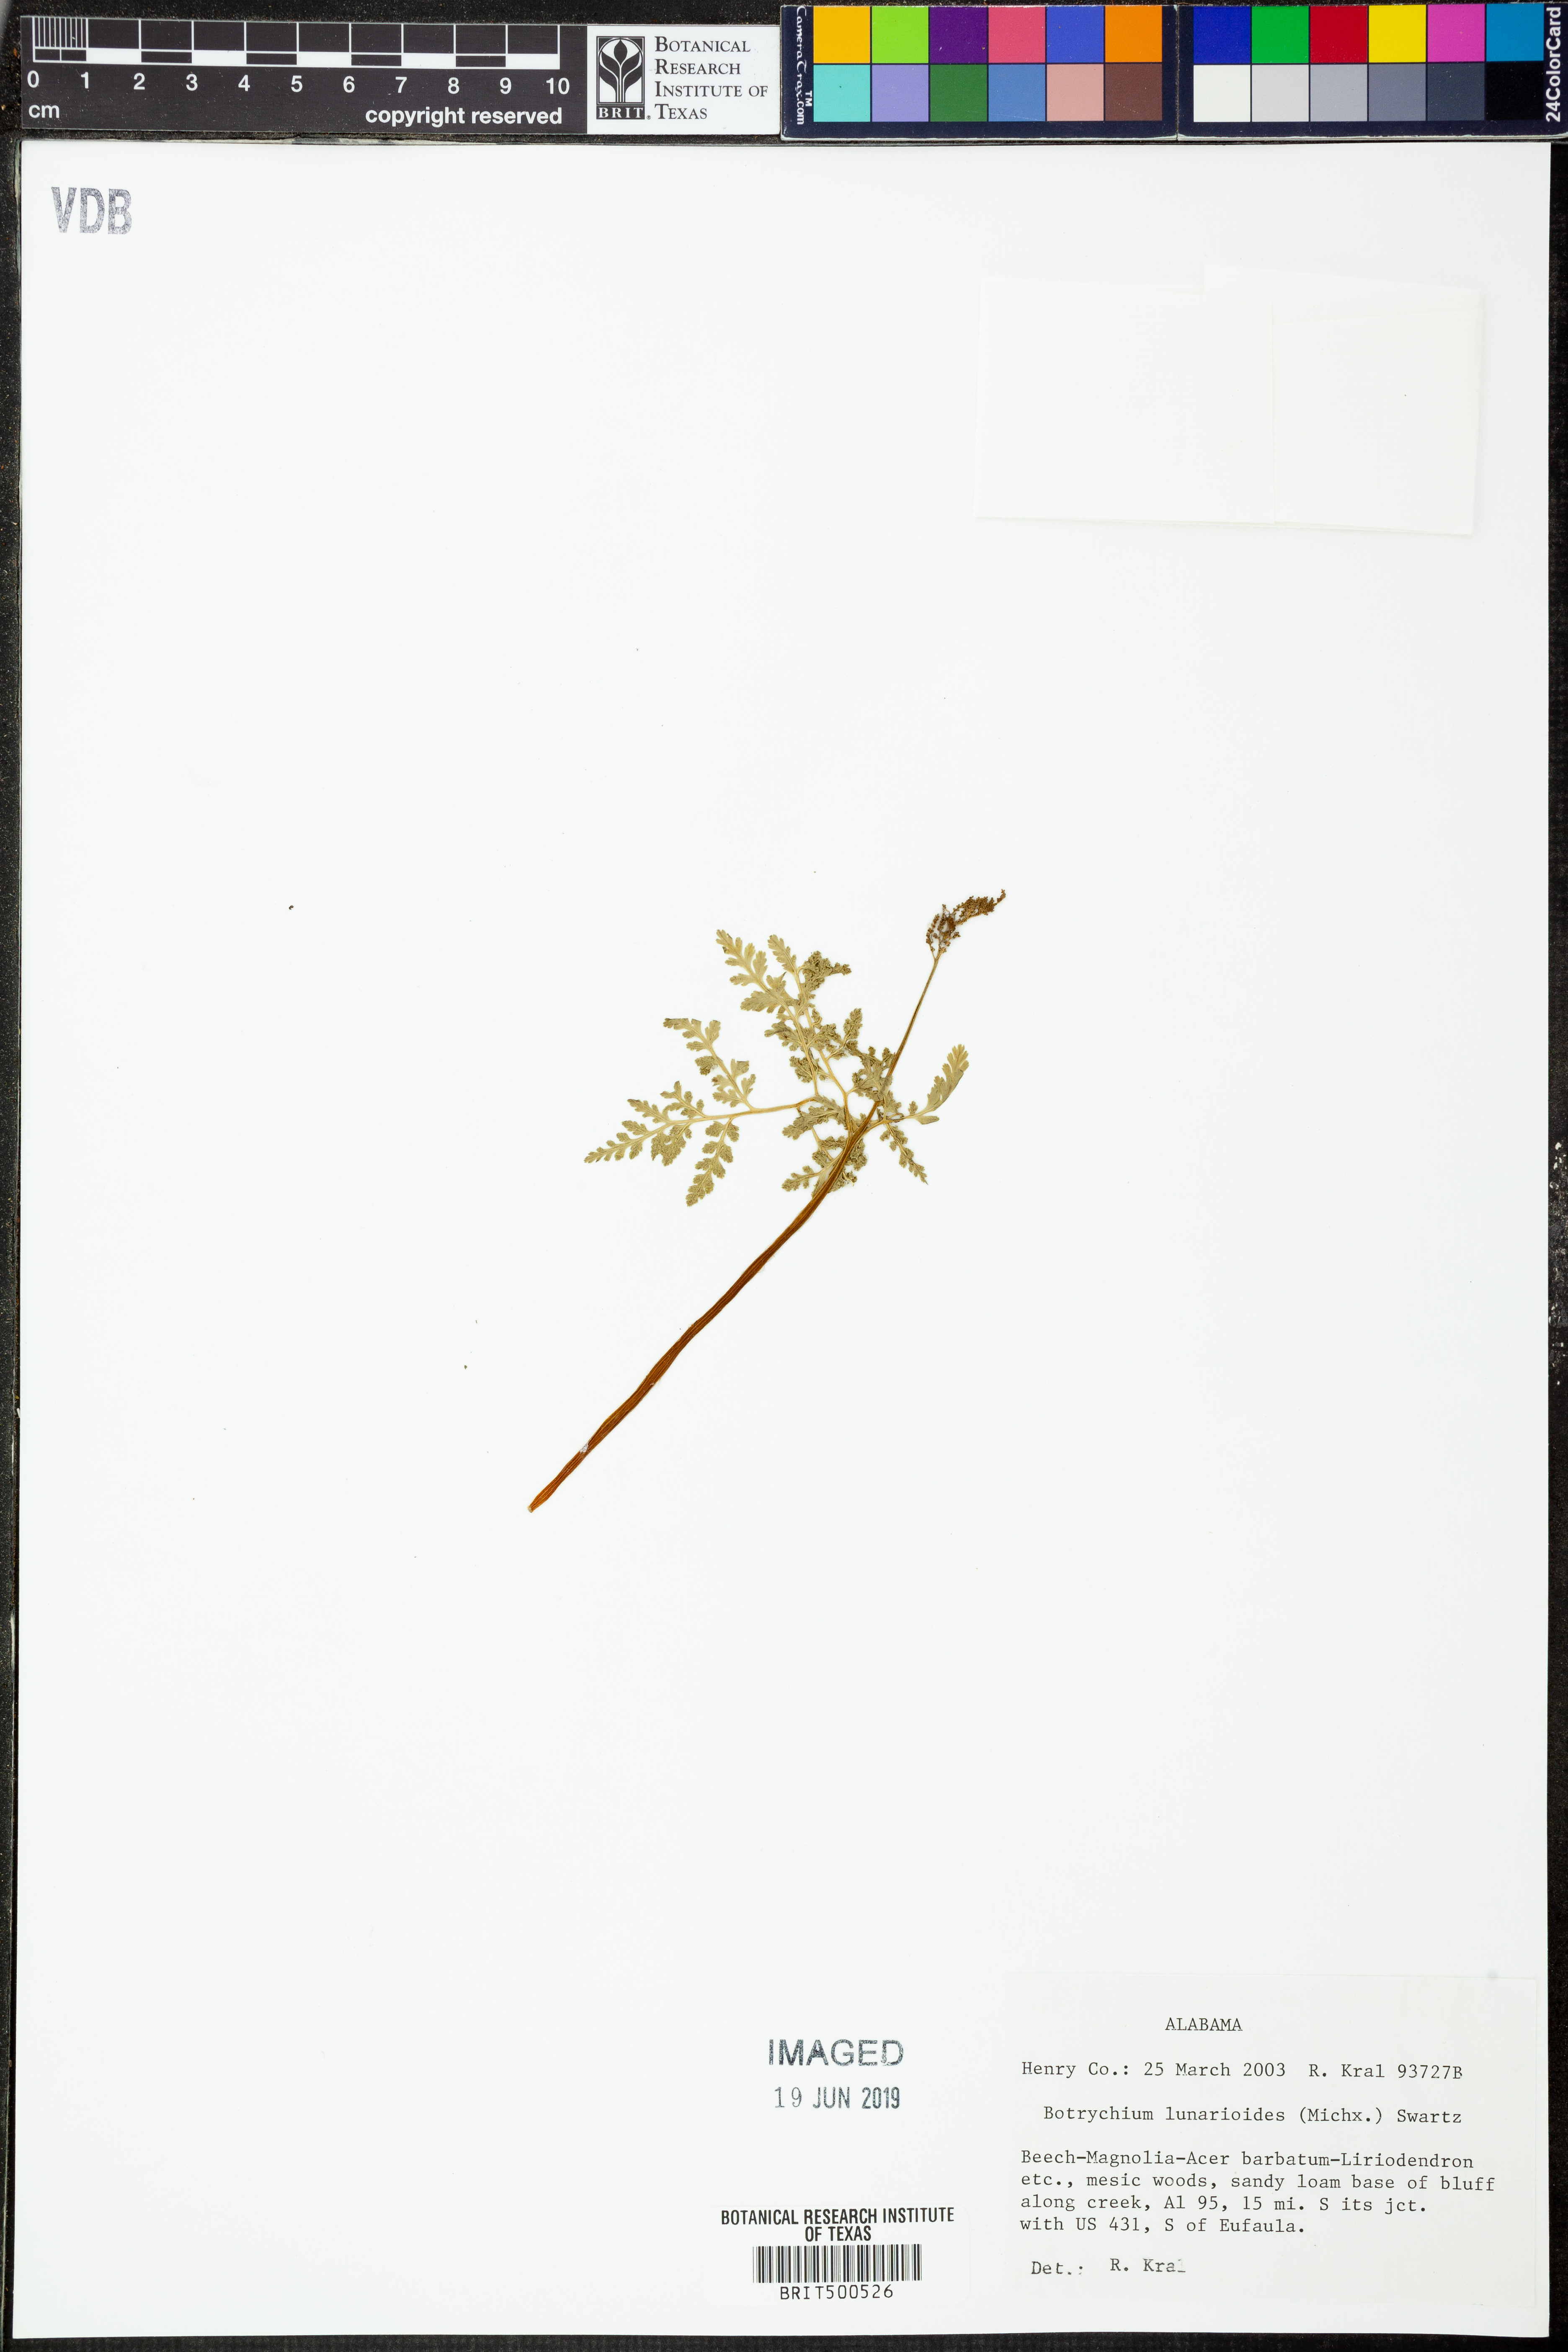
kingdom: Plantae
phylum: Tracheophyta
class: Polypodiopsida
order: Ophioglossales
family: Ophioglossaceae
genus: Sceptridium
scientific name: Sceptridium lunarioides
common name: Prostrate grapefern
